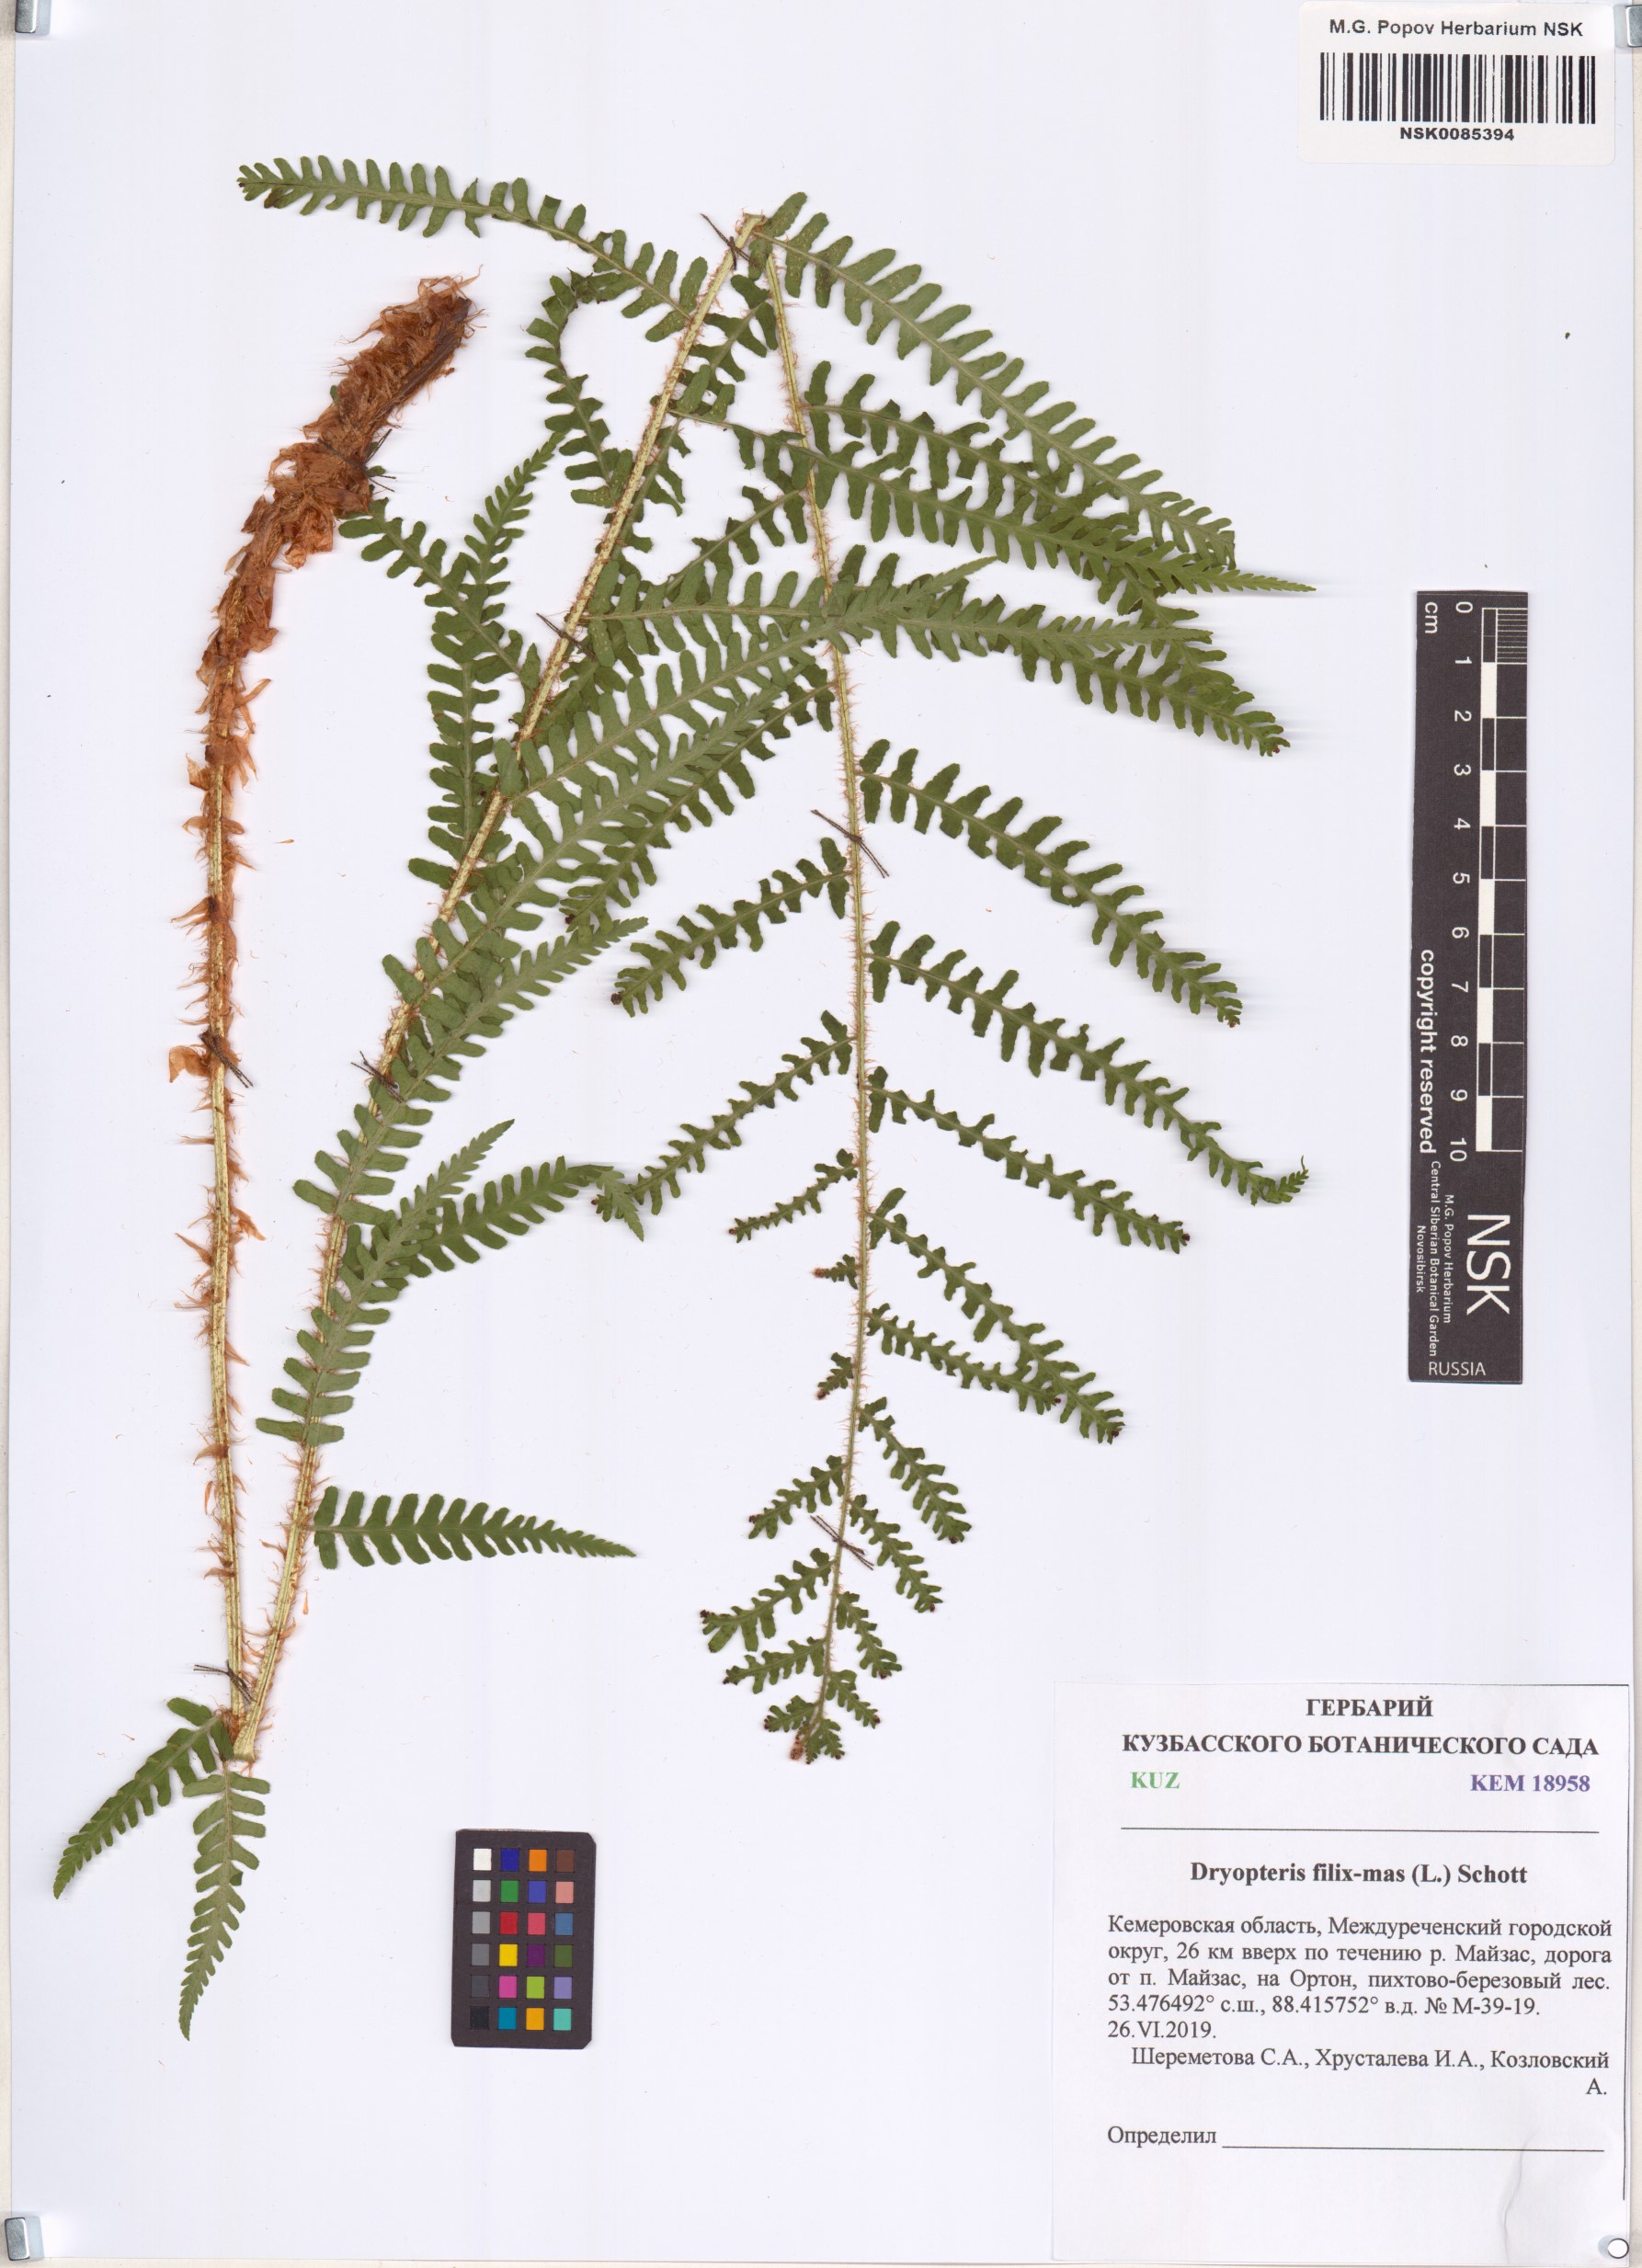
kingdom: Plantae
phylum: Tracheophyta
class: Polypodiopsida
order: Polypodiales
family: Dryopteridaceae
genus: Dryopteris
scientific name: Dryopteris filix-mas
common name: Male fern
